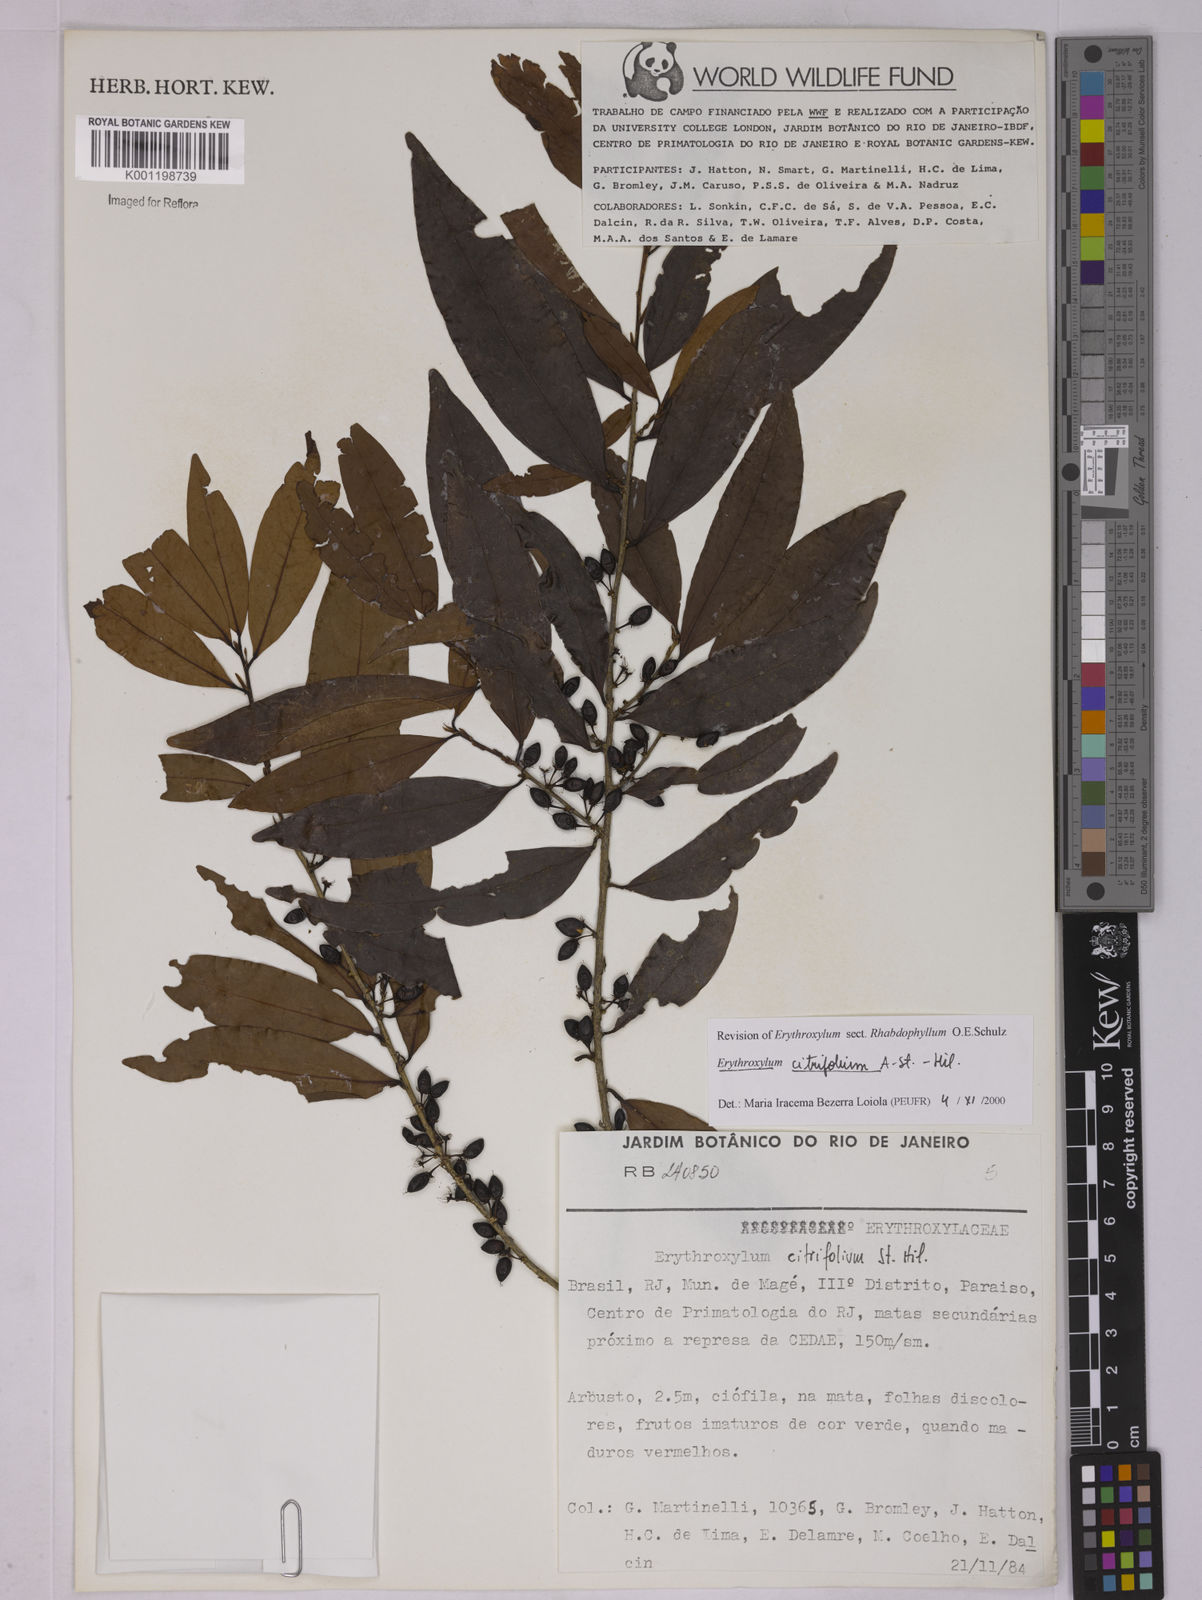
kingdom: Plantae
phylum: Tracheophyta
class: Magnoliopsida
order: Malpighiales
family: Erythroxylaceae
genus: Erythroxylum
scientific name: Erythroxylum citrifolium
